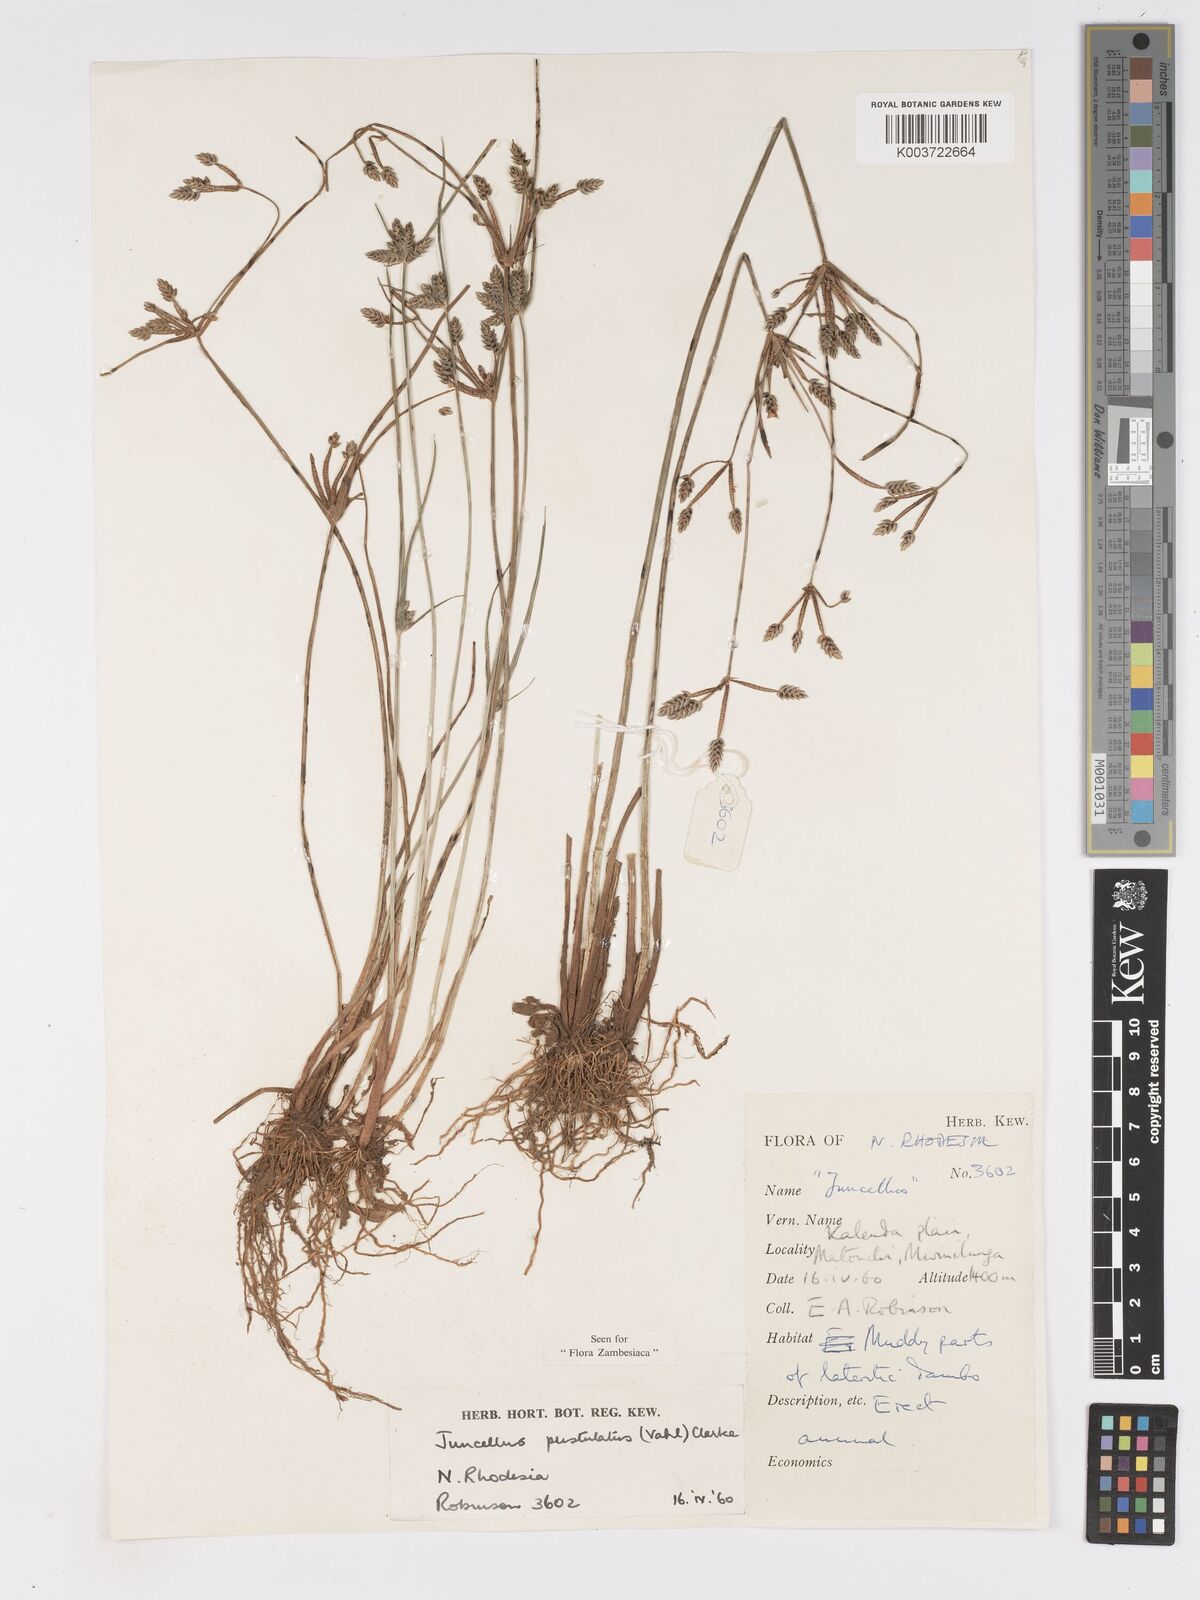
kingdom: Plantae
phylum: Tracheophyta
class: Liliopsida
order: Poales
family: Cyperaceae
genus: Cyperus
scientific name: Cyperus pustulatus
